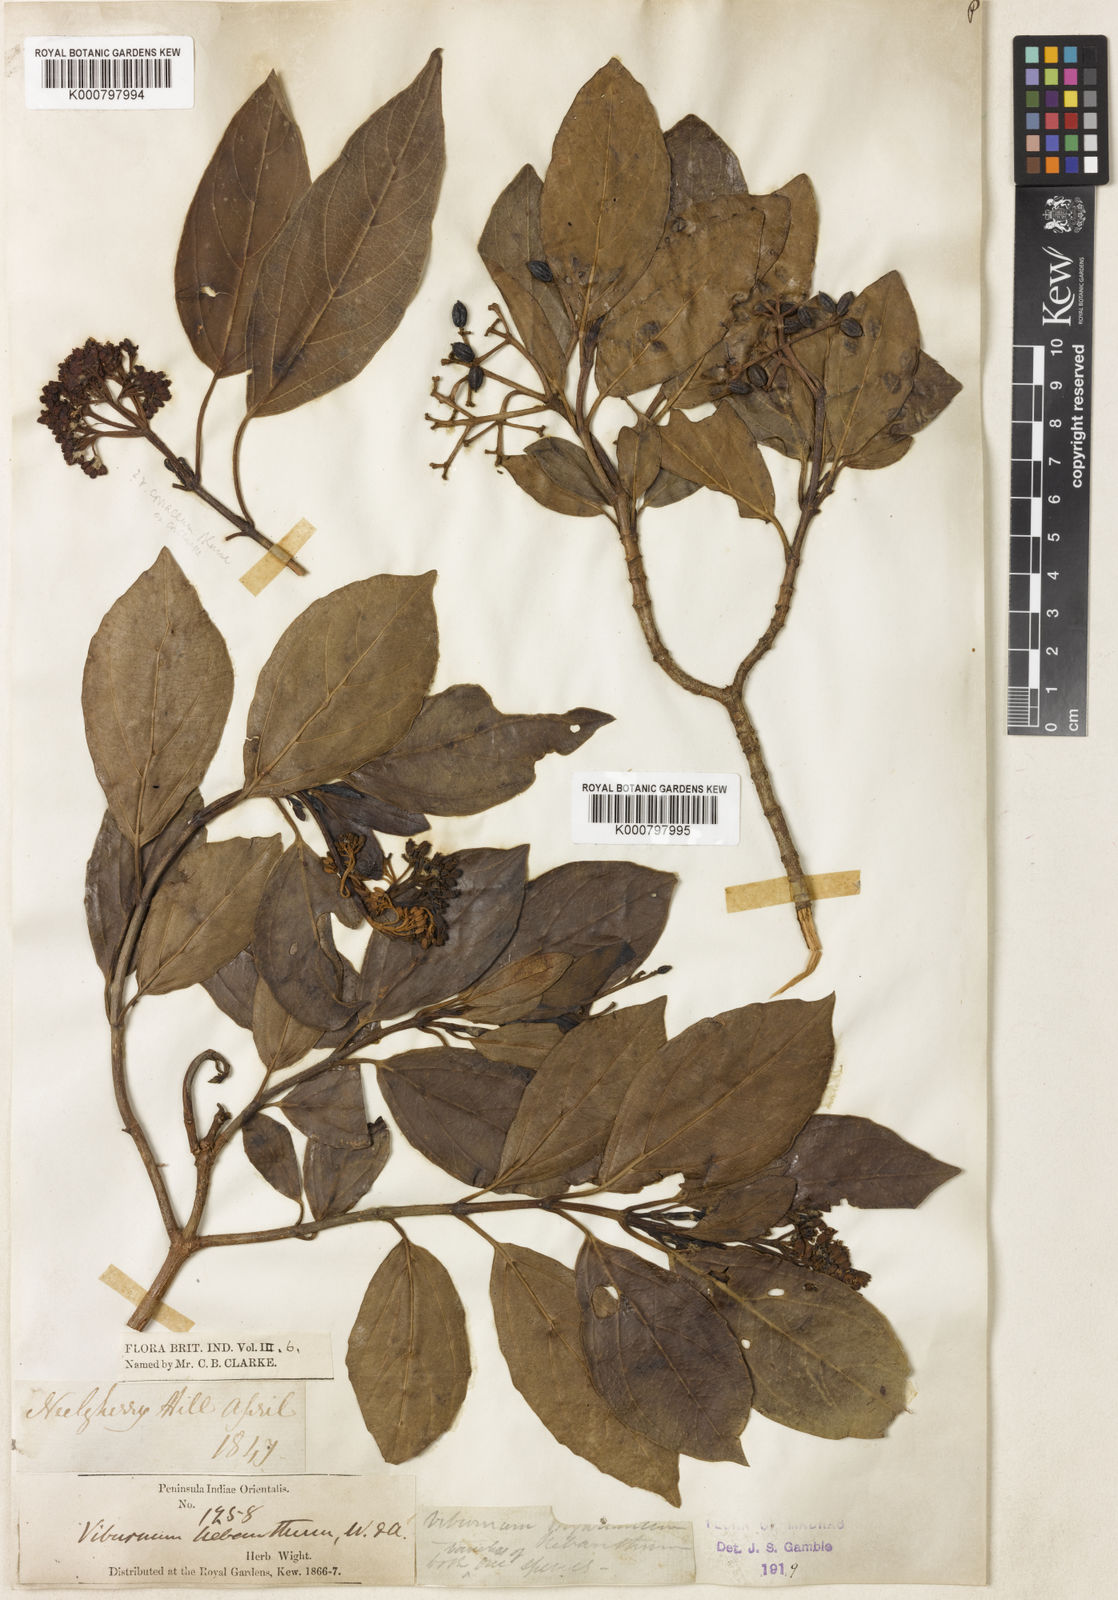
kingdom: Plantae
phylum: Tracheophyta
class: Magnoliopsida
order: Dipsacales
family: Viburnaceae
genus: Viburnum
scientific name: Viburnum coriaceum
